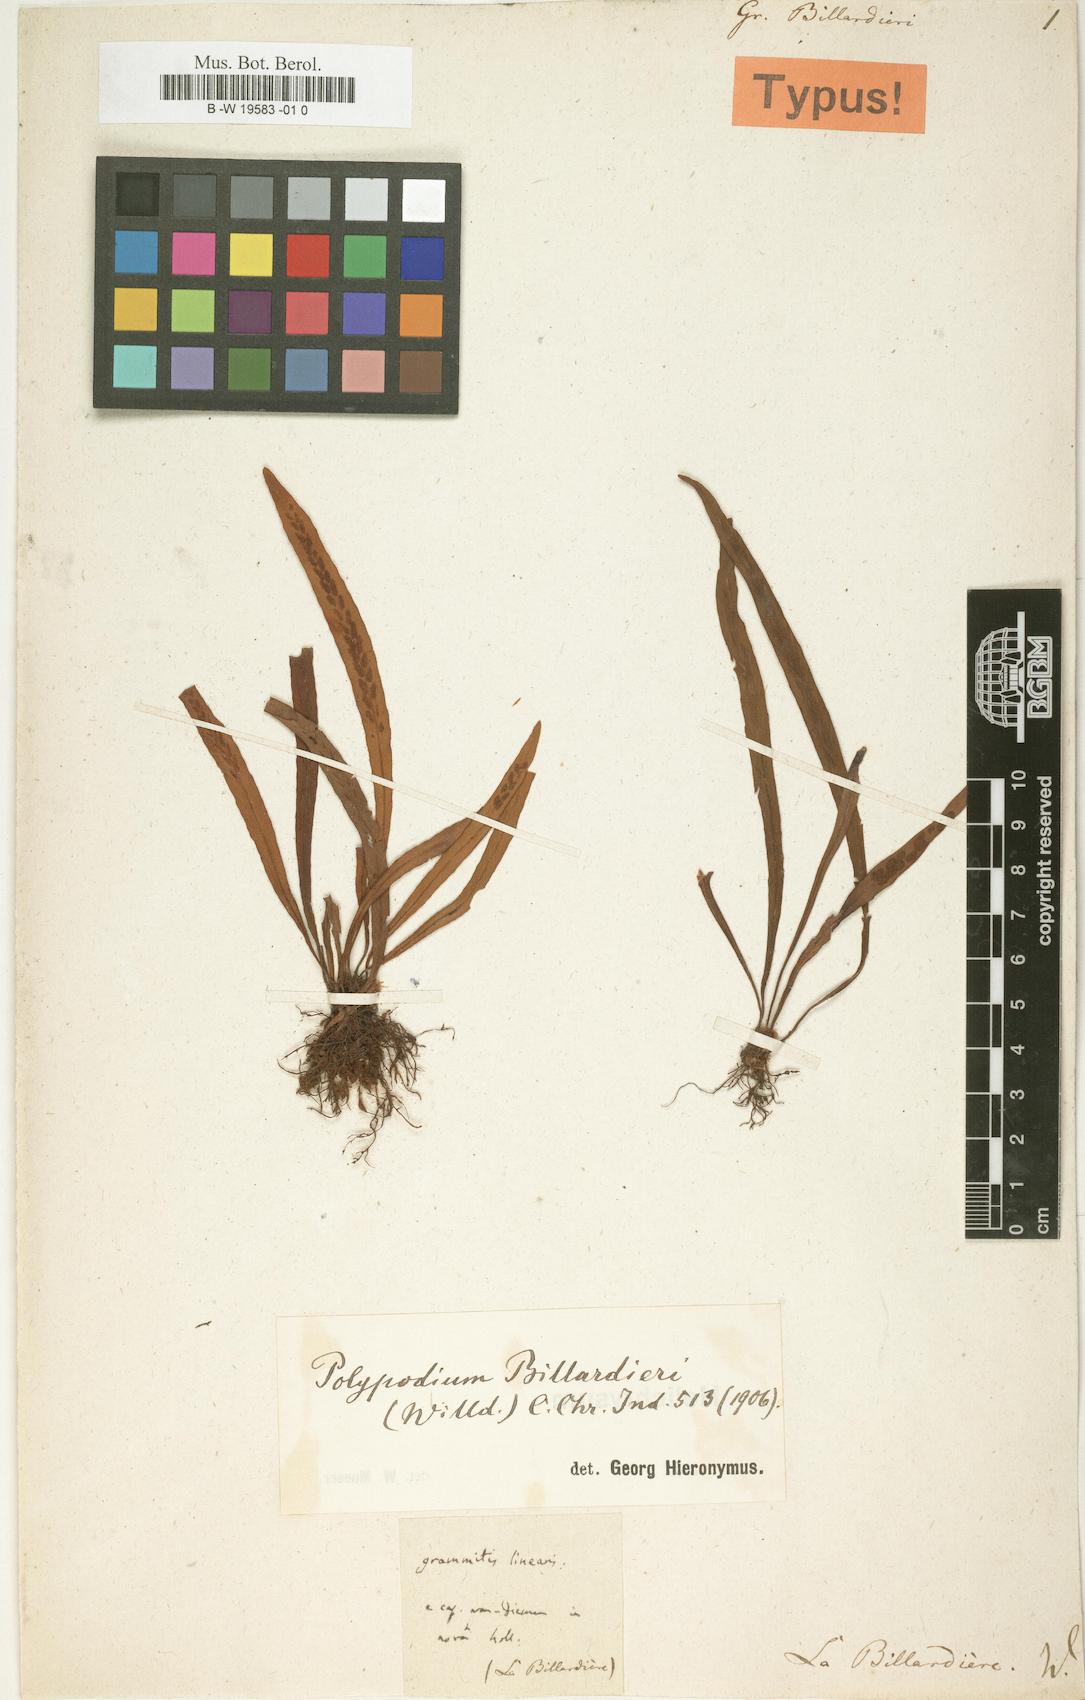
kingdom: Plantae
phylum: Tracheophyta
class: Polypodiopsida
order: Polypodiales
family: Polypodiaceae
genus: Notogrammitis
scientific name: Notogrammitis billardierei
